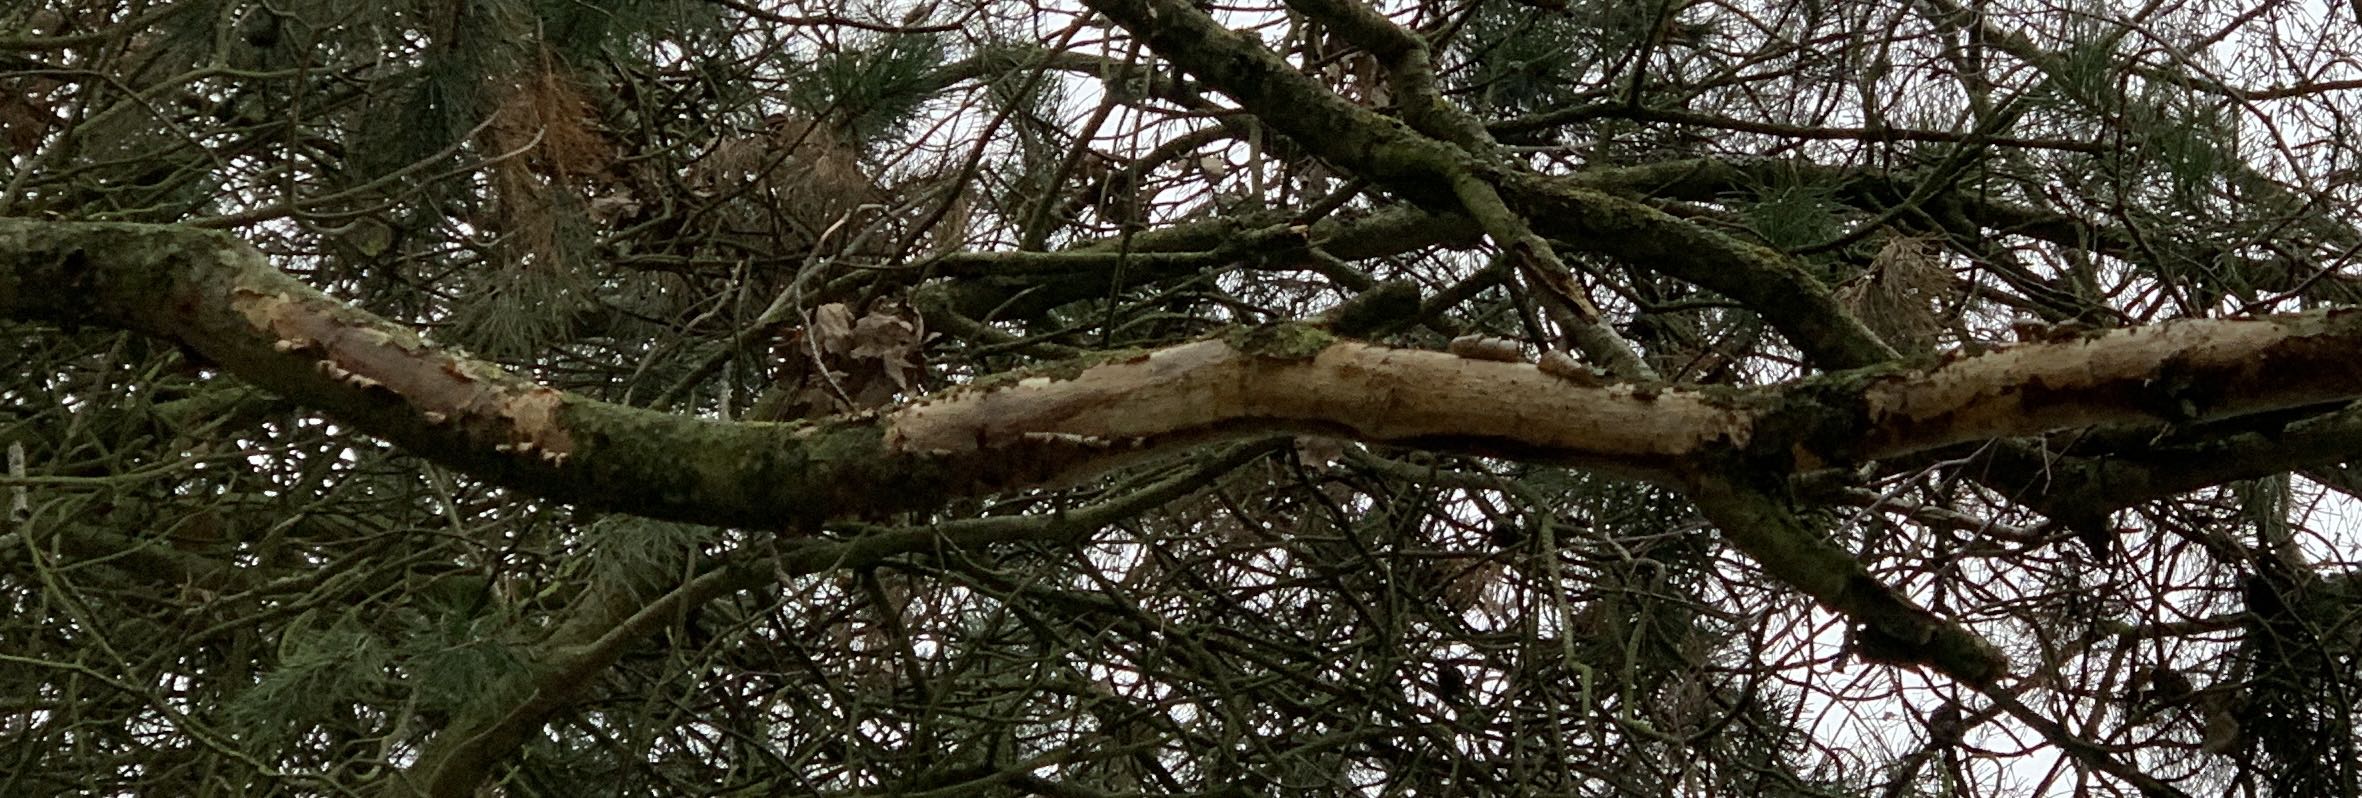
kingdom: Fungi
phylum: Basidiomycota
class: Agaricomycetes
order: Corticiales
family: Vuilleminiaceae
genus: Vuilleminia
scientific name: Vuilleminia comedens
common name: almindelig barksprænger
